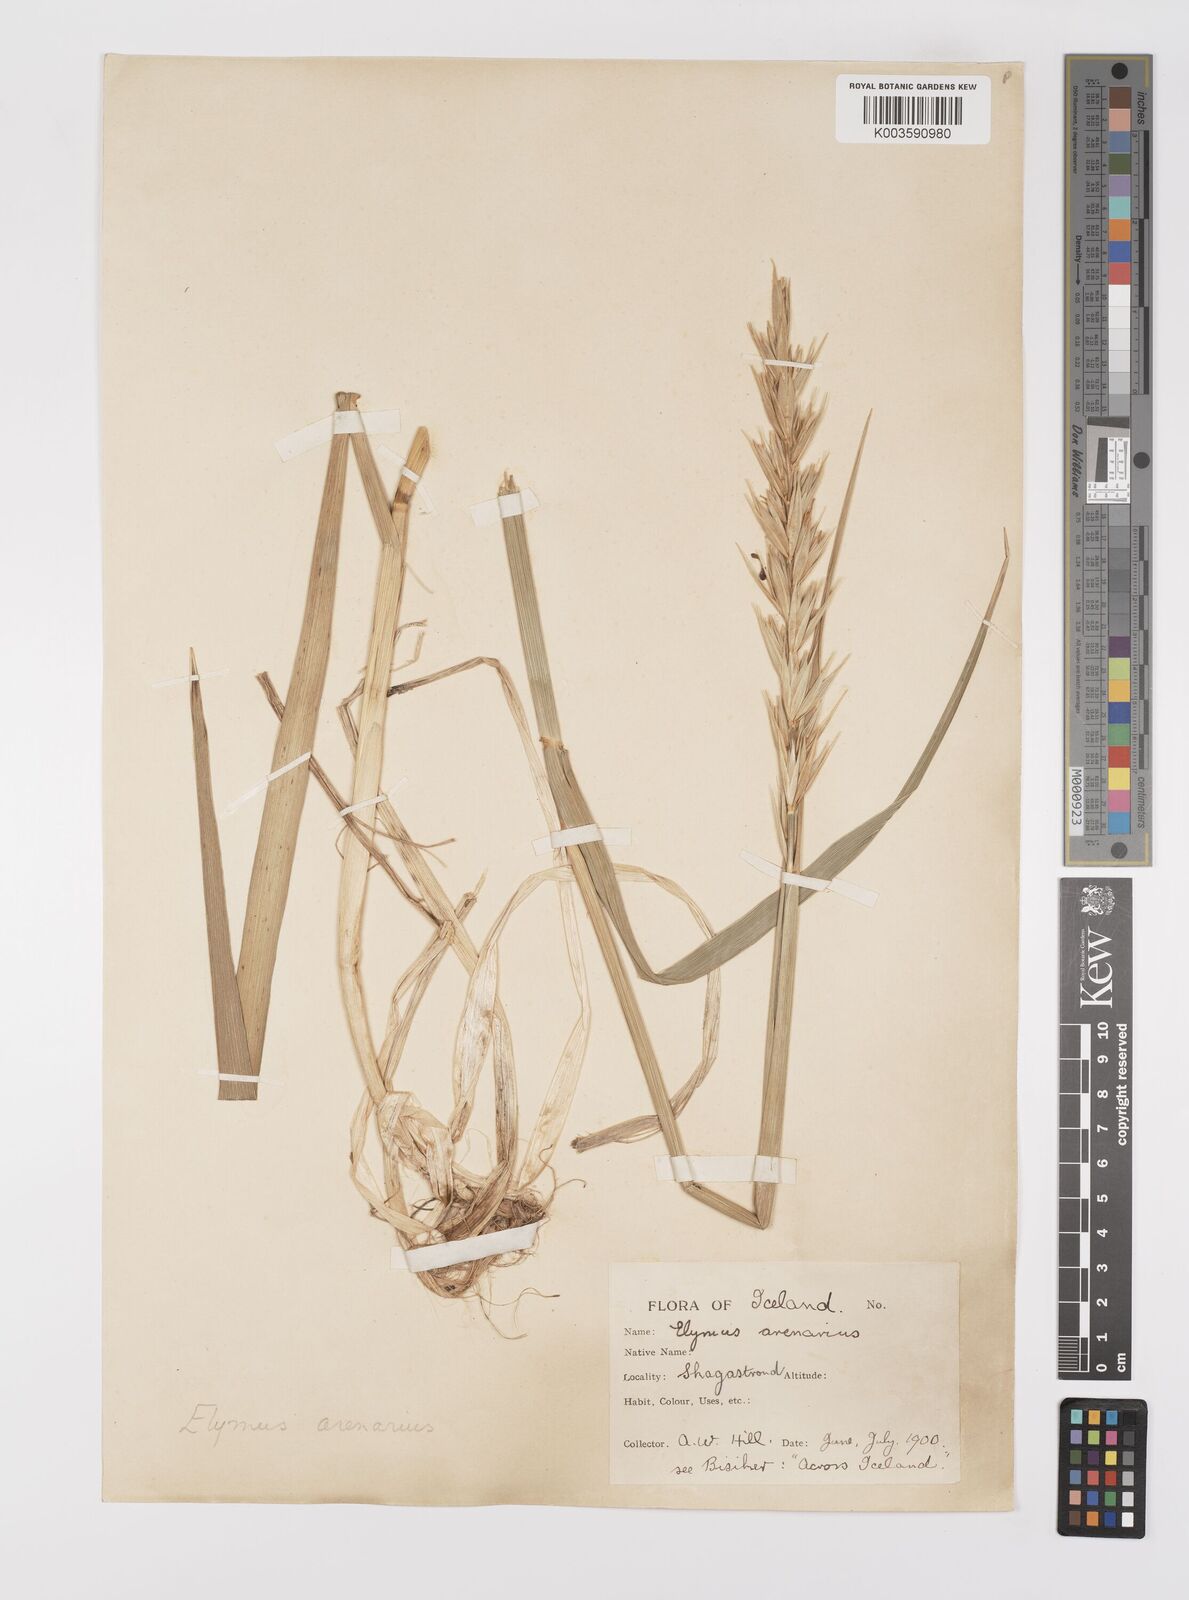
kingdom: Plantae
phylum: Tracheophyta
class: Liliopsida
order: Poales
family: Poaceae
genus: Leymus
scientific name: Leymus arenarius
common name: Lyme-grass
